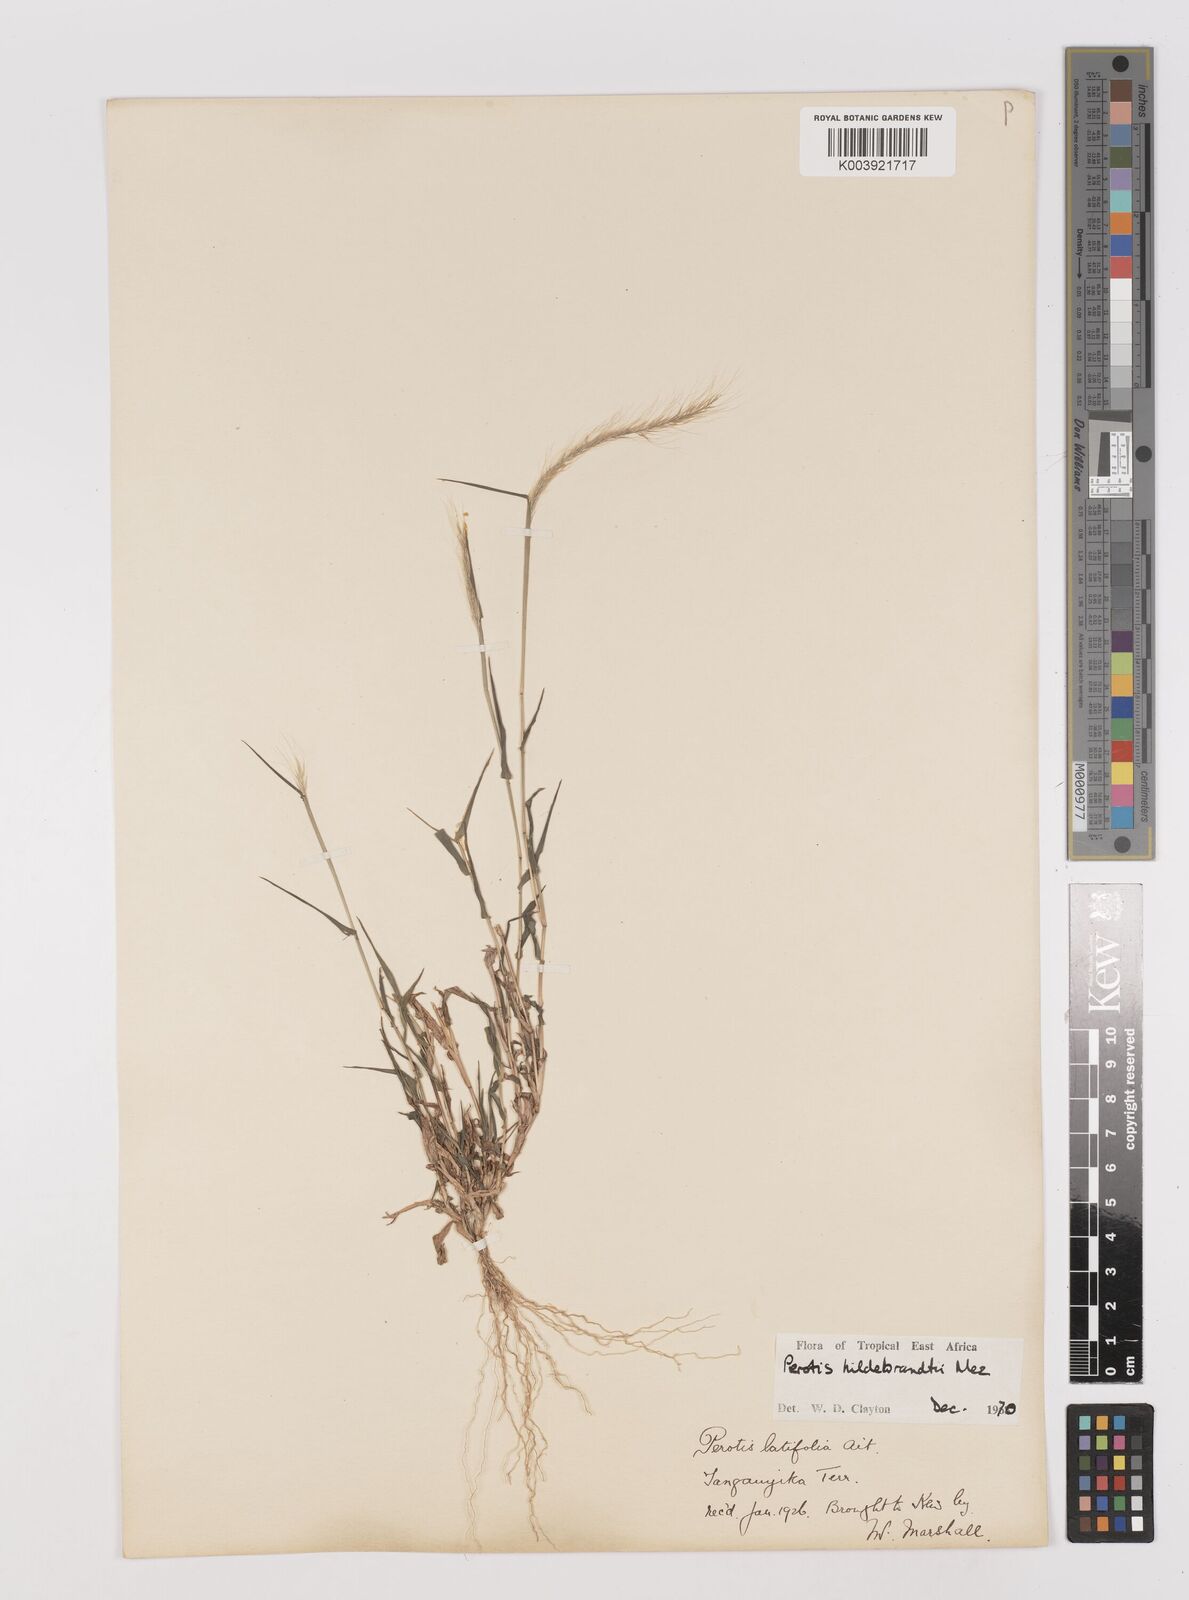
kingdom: Plantae
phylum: Tracheophyta
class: Liliopsida
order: Poales
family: Poaceae
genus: Perotis
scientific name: Perotis hildebrandtii
